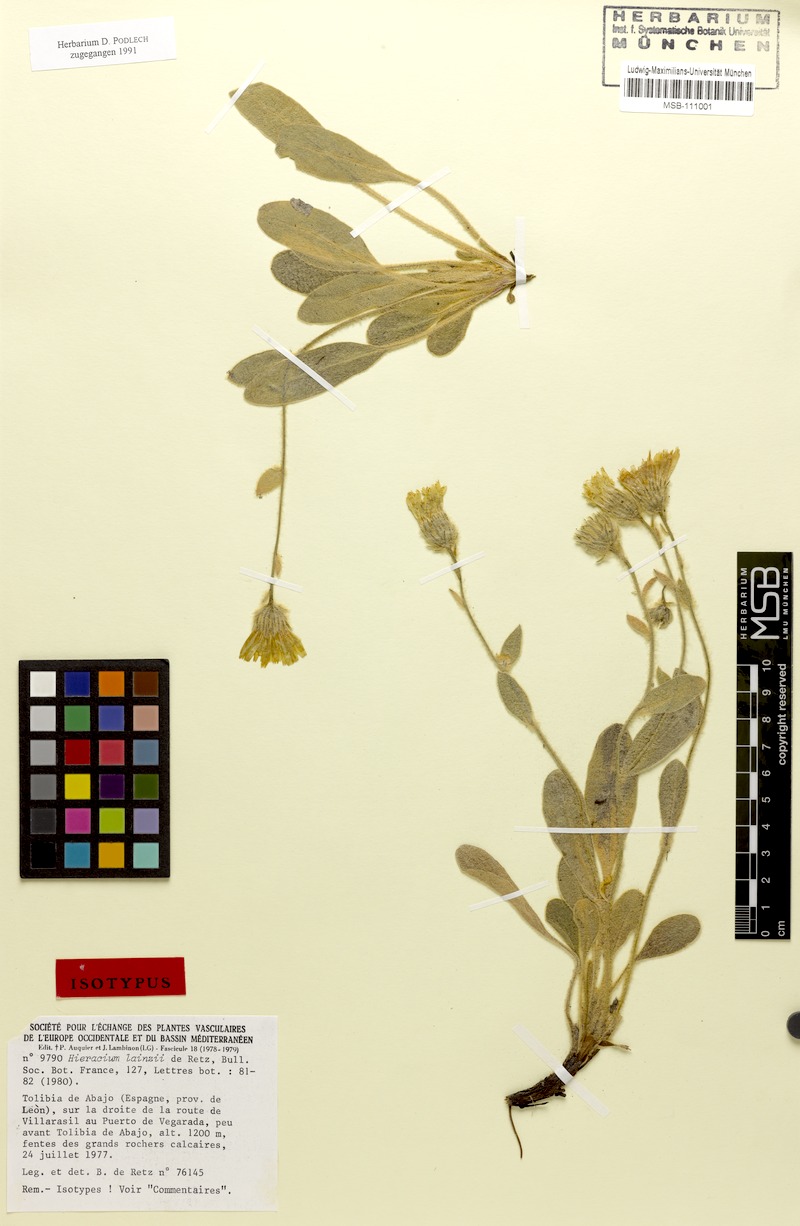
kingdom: Plantae
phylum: Tracheophyta
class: Magnoliopsida
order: Asterales
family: Asteraceae
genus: Hieracium
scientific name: Hieracium lainzii
